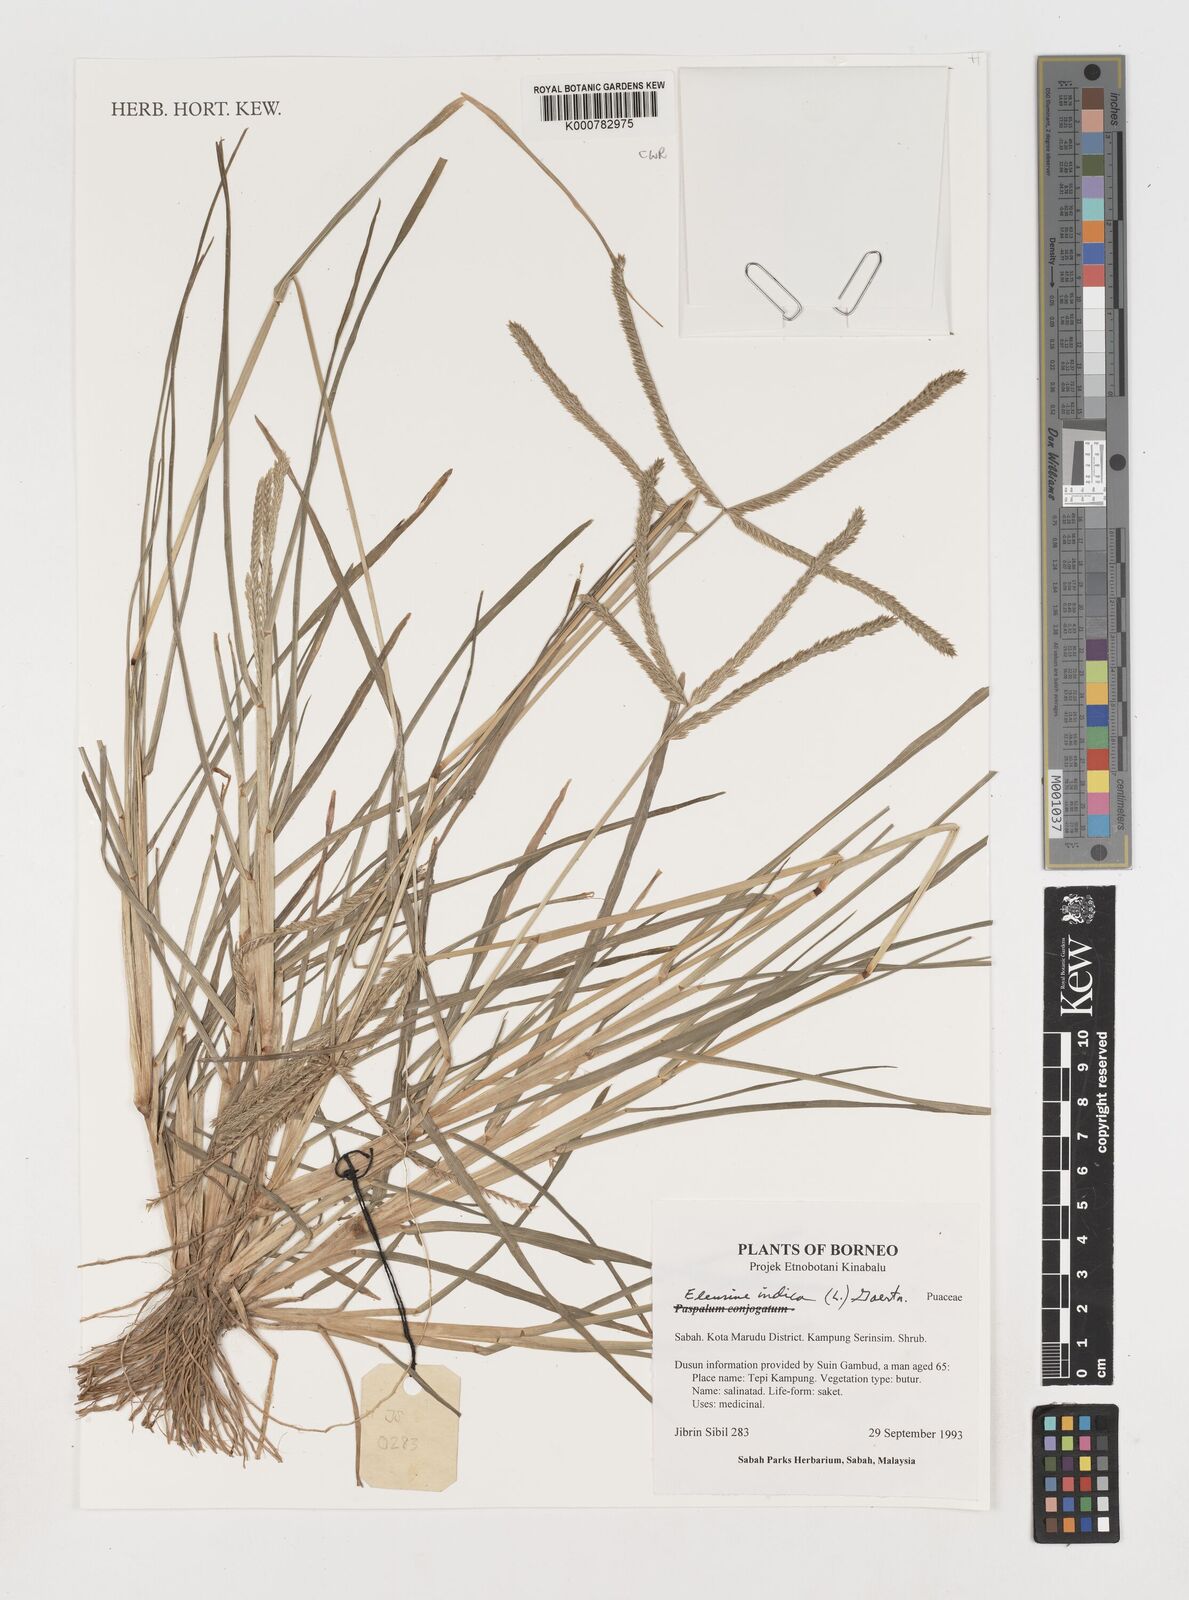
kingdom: Plantae
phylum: Tracheophyta
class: Liliopsida
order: Poales
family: Poaceae
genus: Eleusine
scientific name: Eleusine indica
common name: Yard-grass
